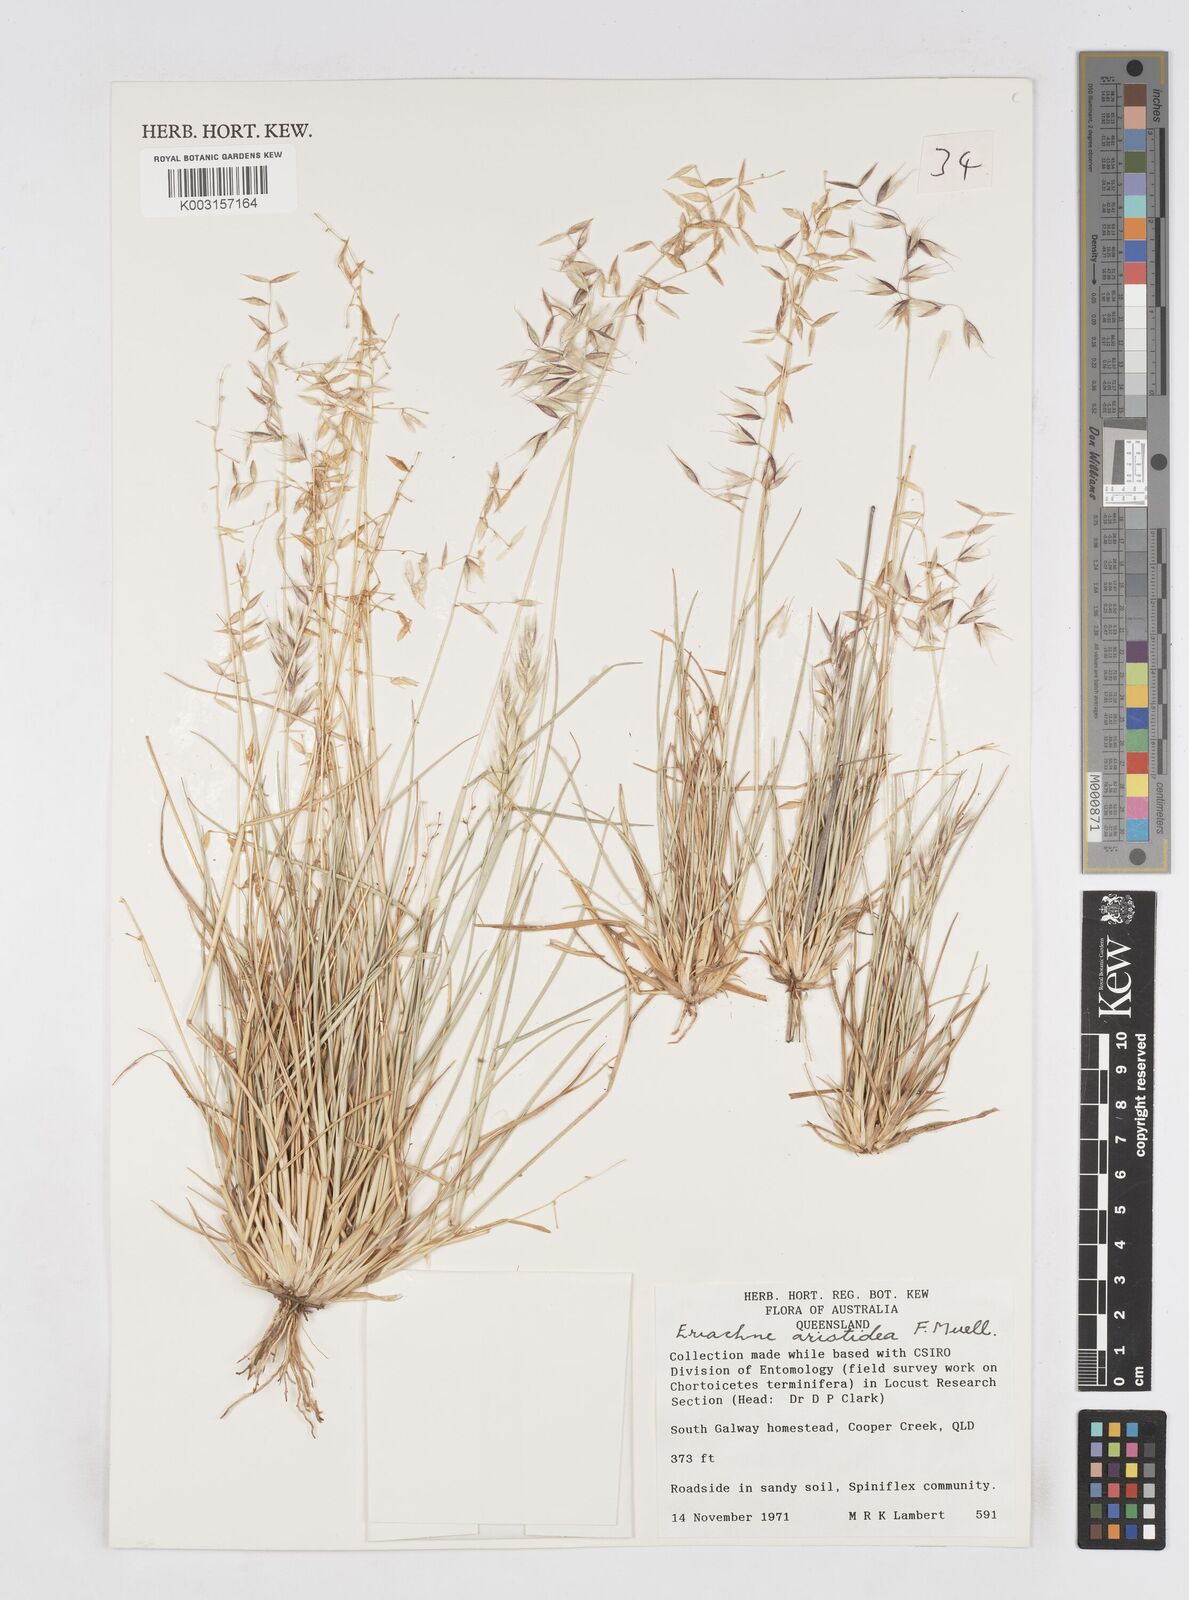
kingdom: Plantae
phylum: Tracheophyta
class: Liliopsida
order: Poales
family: Poaceae
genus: Eriachne
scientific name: Eriachne aristidea
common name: Three-awn wanderrie grass
